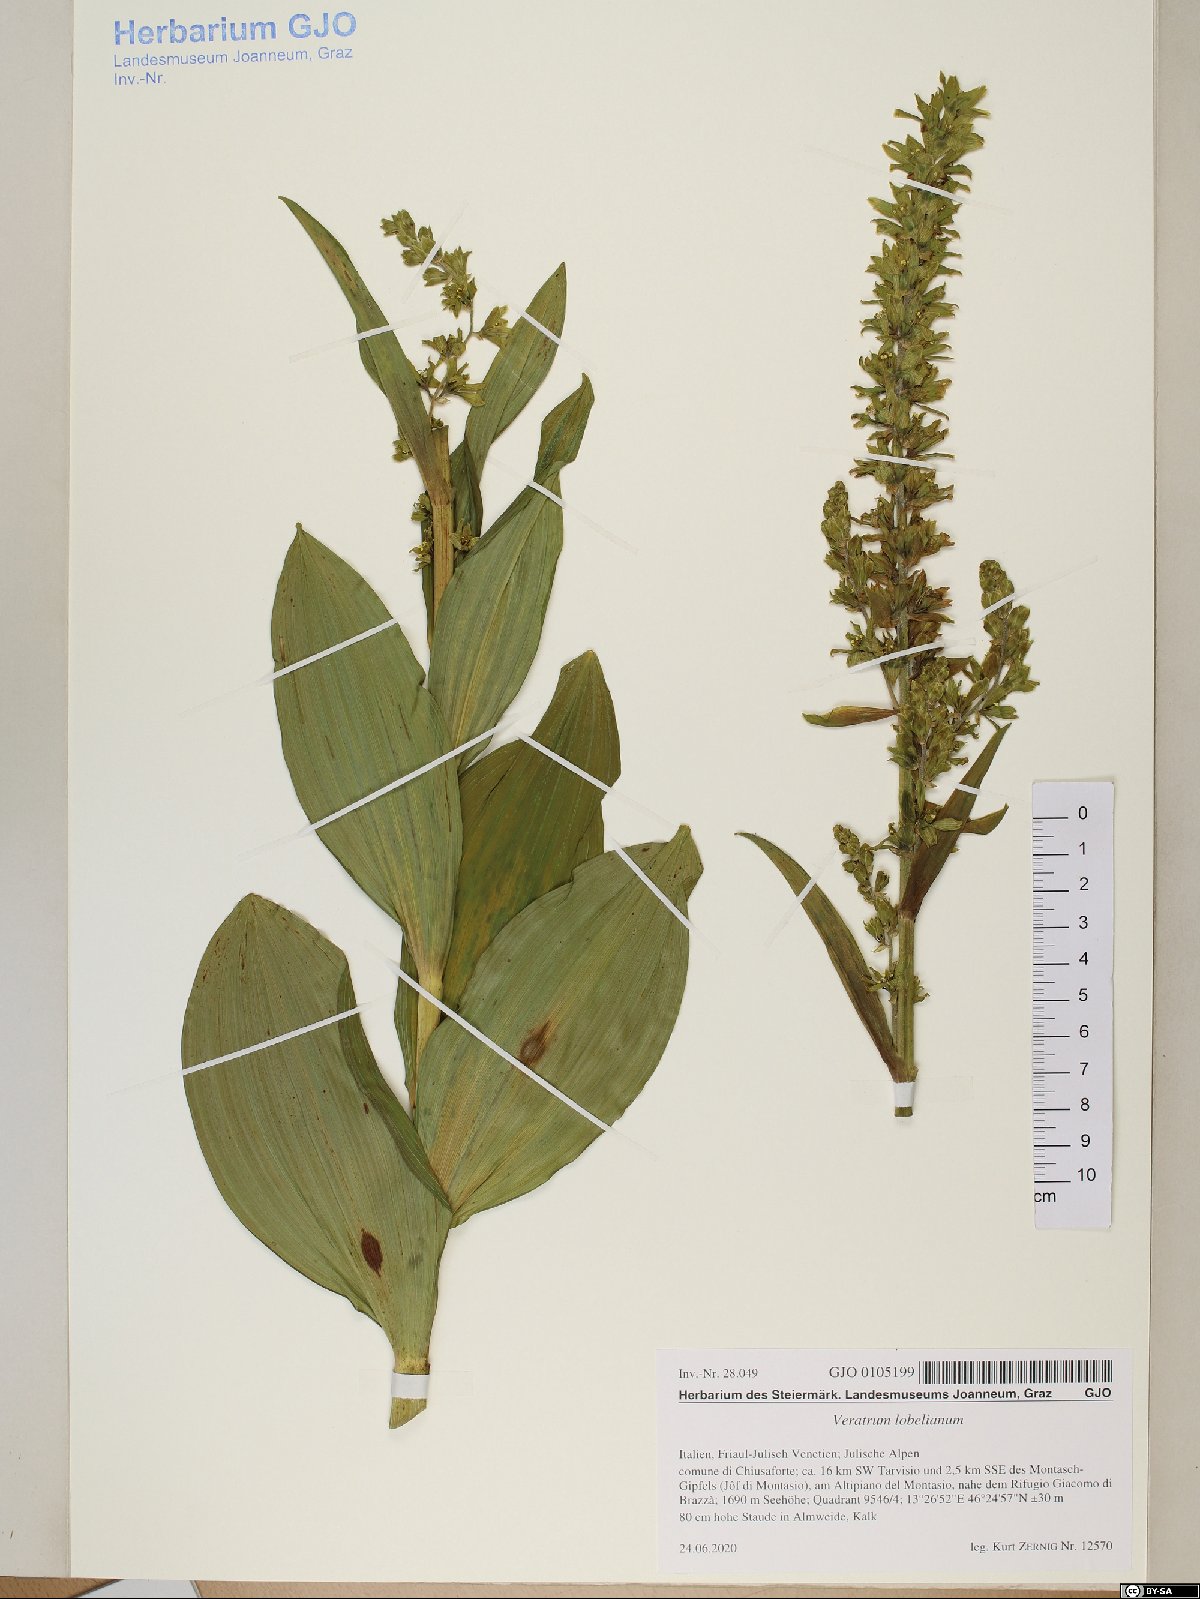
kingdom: Plantae
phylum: Tracheophyta
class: Liliopsida
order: Liliales
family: Melanthiaceae
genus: Veratrum
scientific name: Veratrum lobelianum
